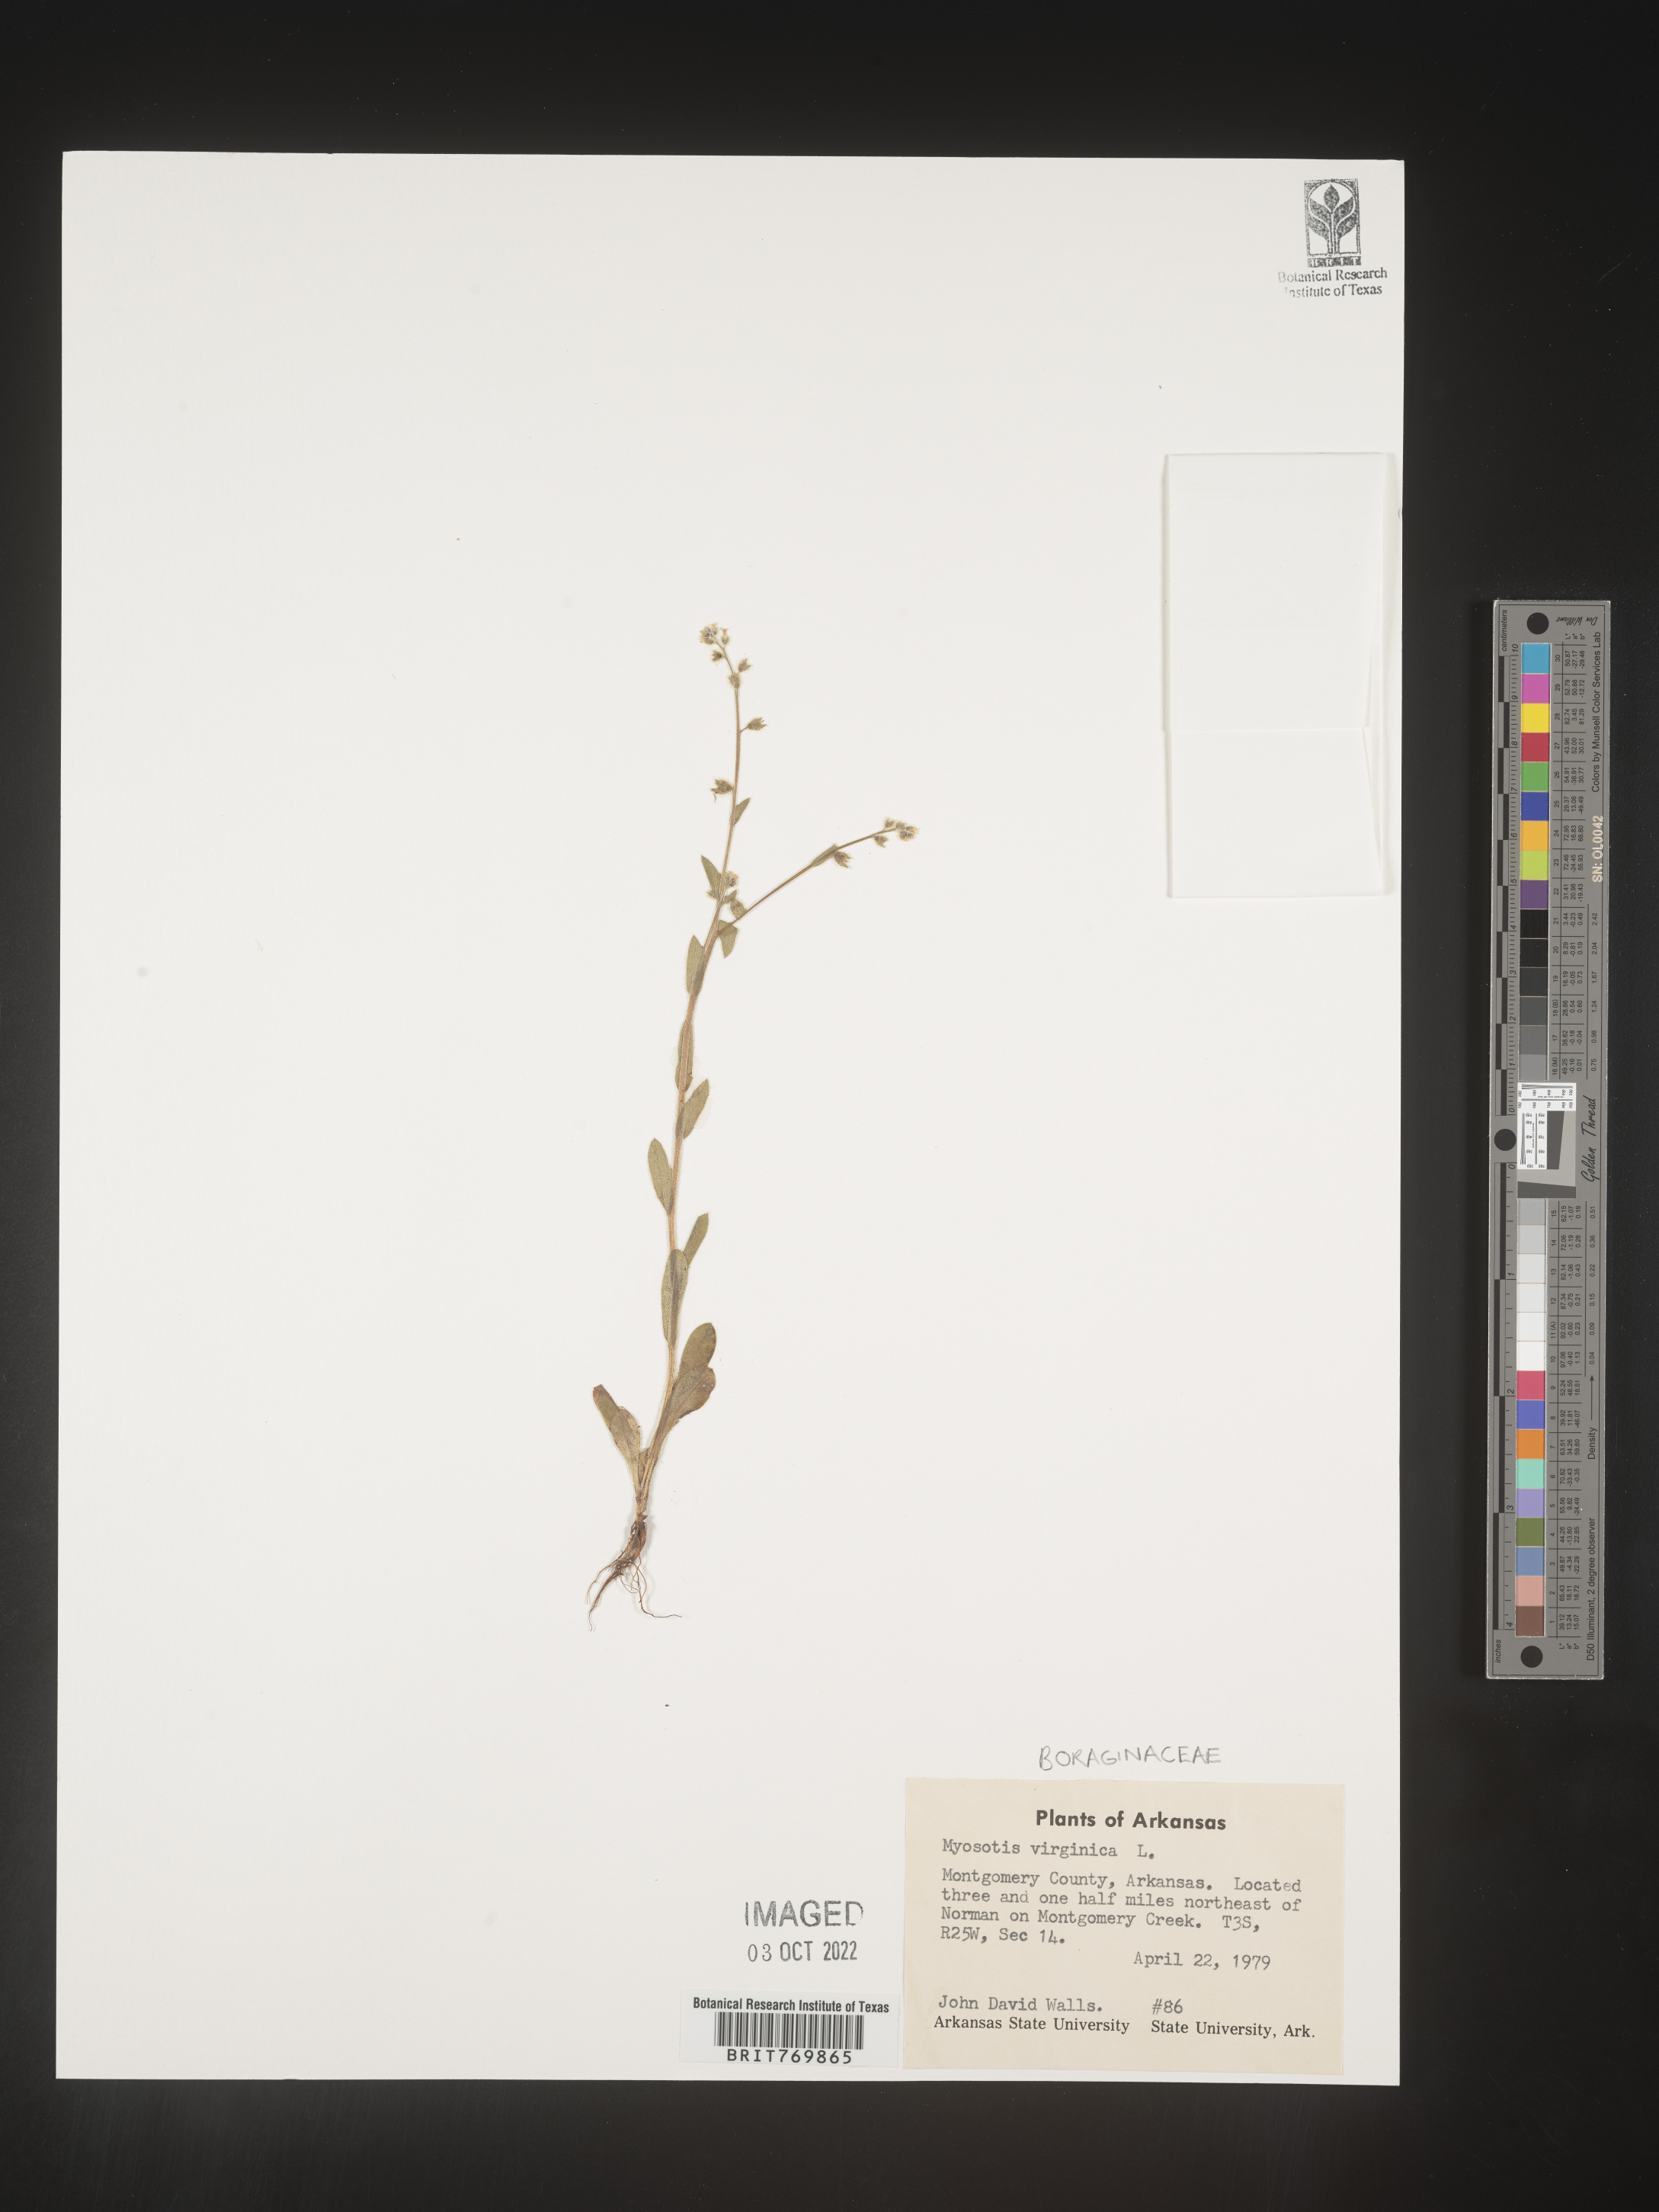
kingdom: Plantae
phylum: Tracheophyta
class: Magnoliopsida
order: Boraginales
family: Boraginaceae
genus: Myosotis
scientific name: Myosotis
